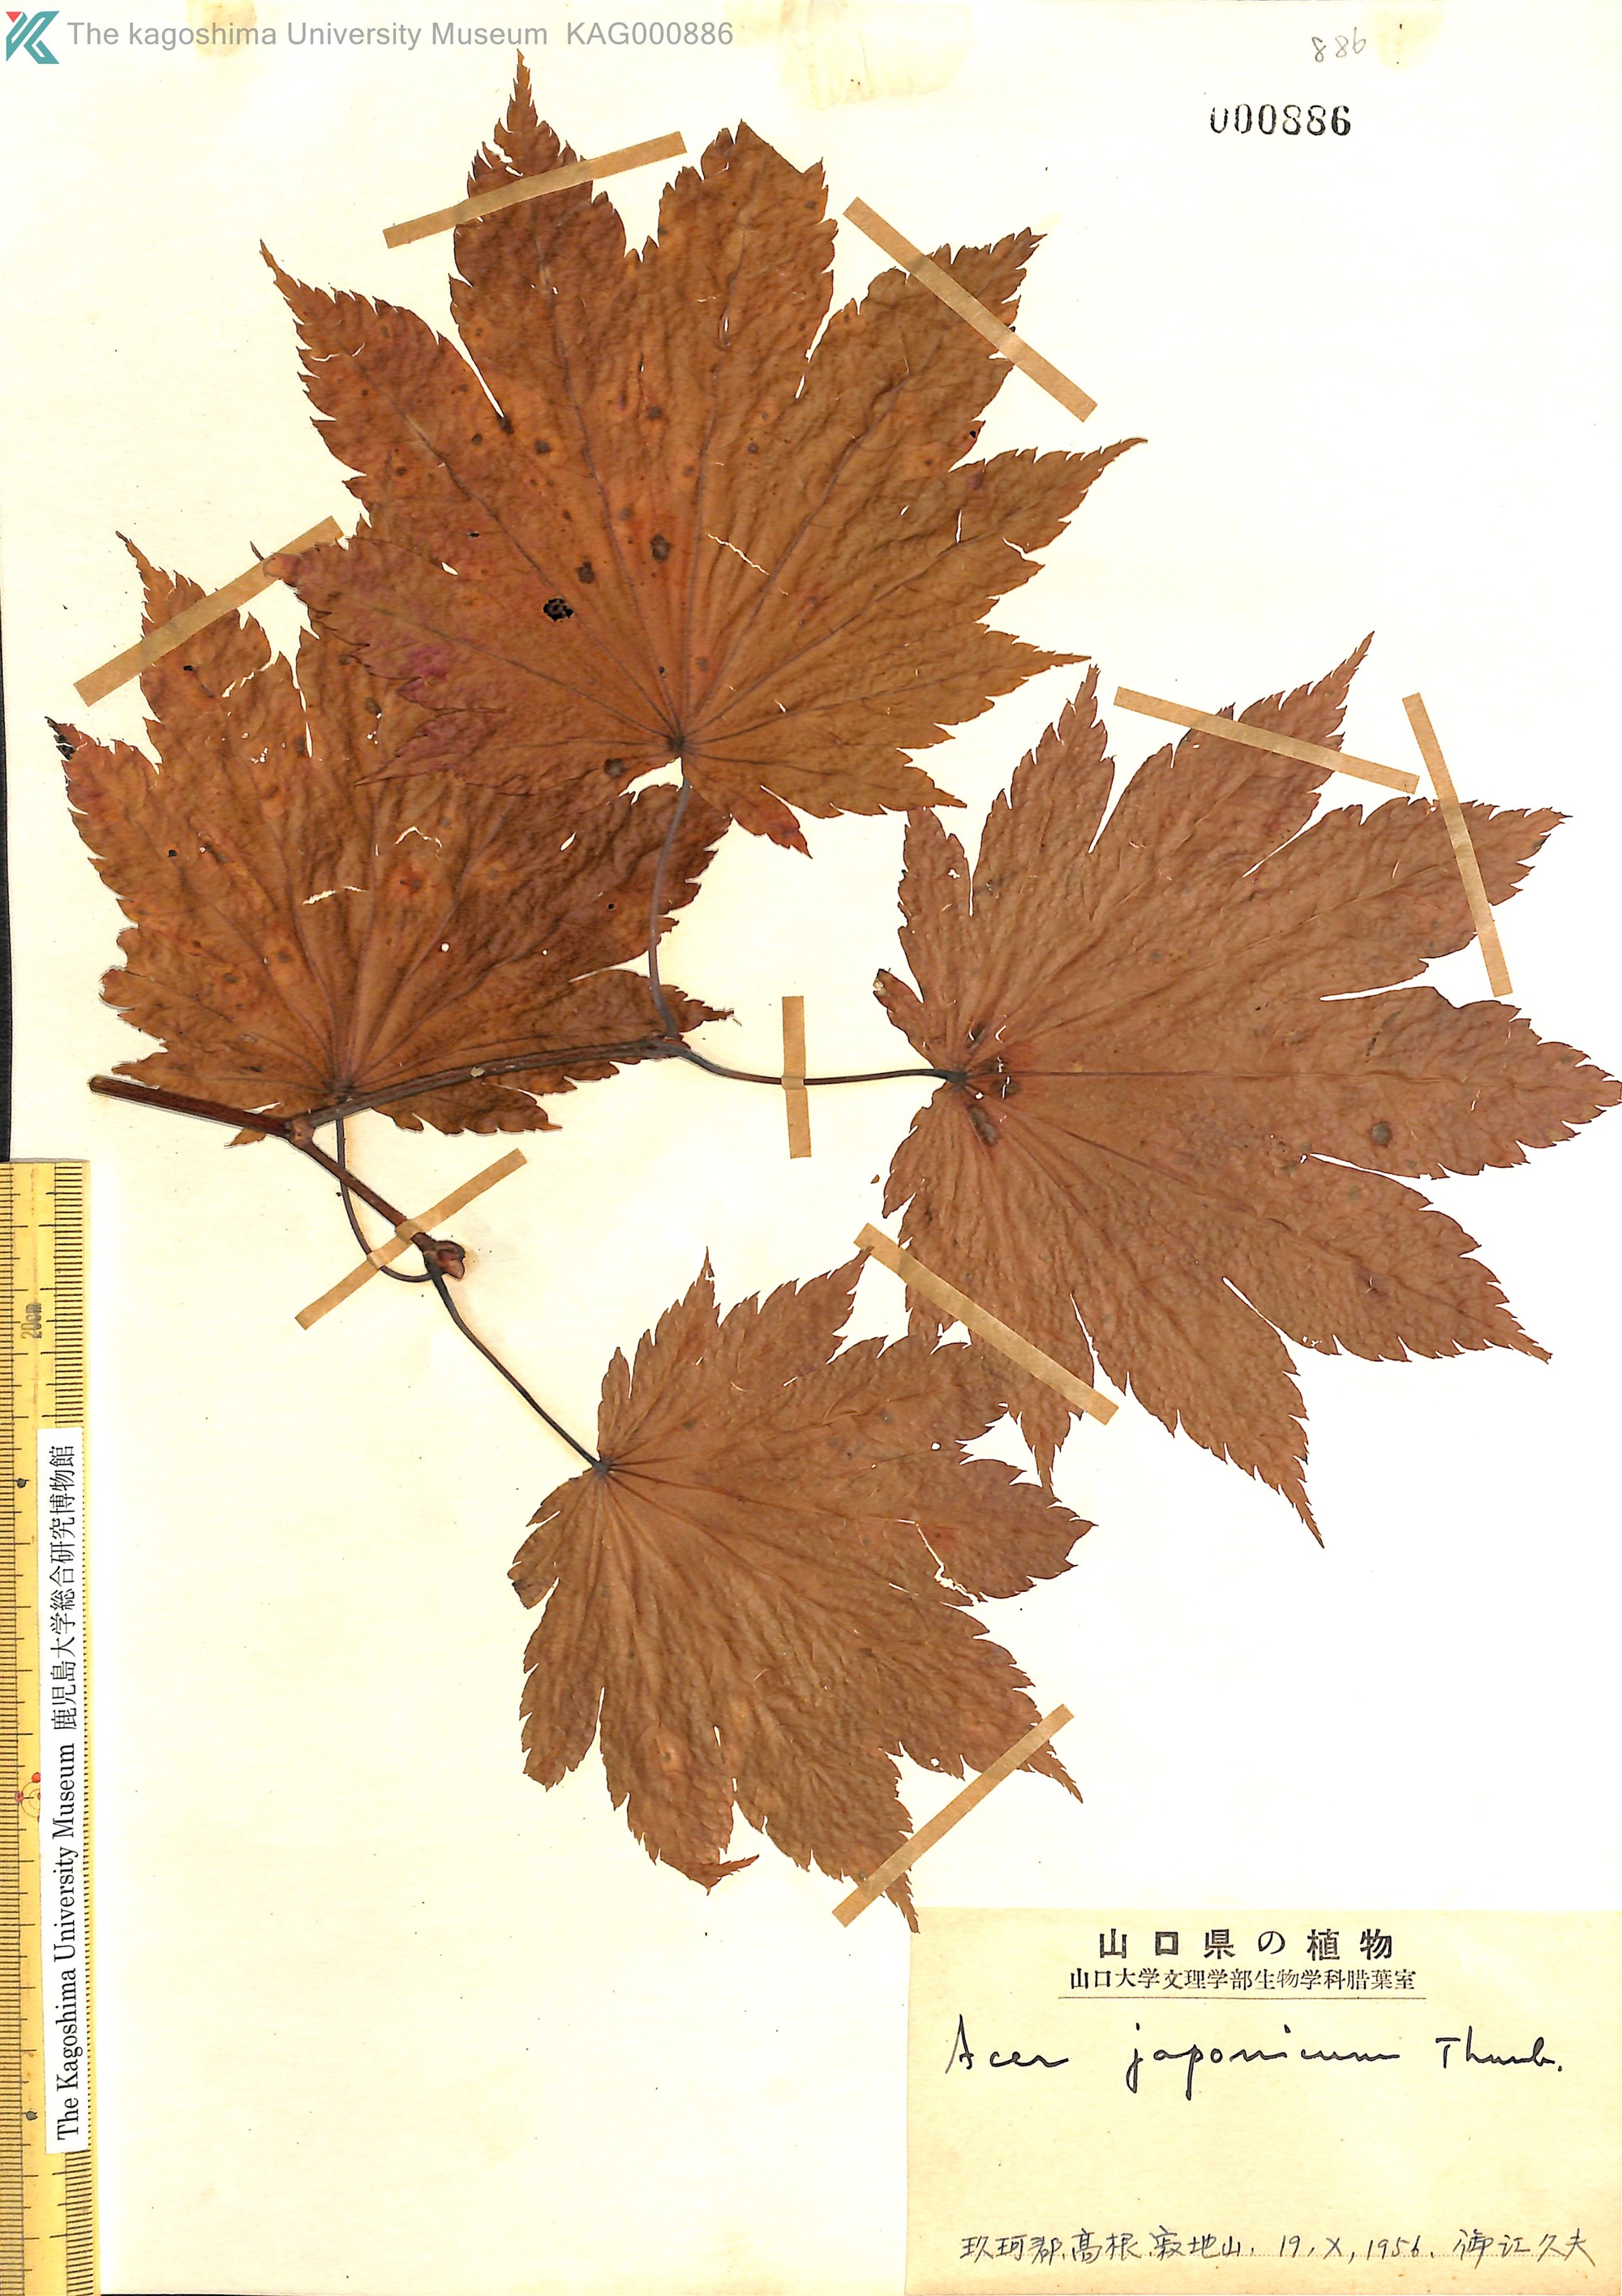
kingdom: Plantae
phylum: Tracheophyta
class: Magnoliopsida
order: Sapindales
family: Sapindaceae
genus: Acer
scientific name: Acer japonicum
